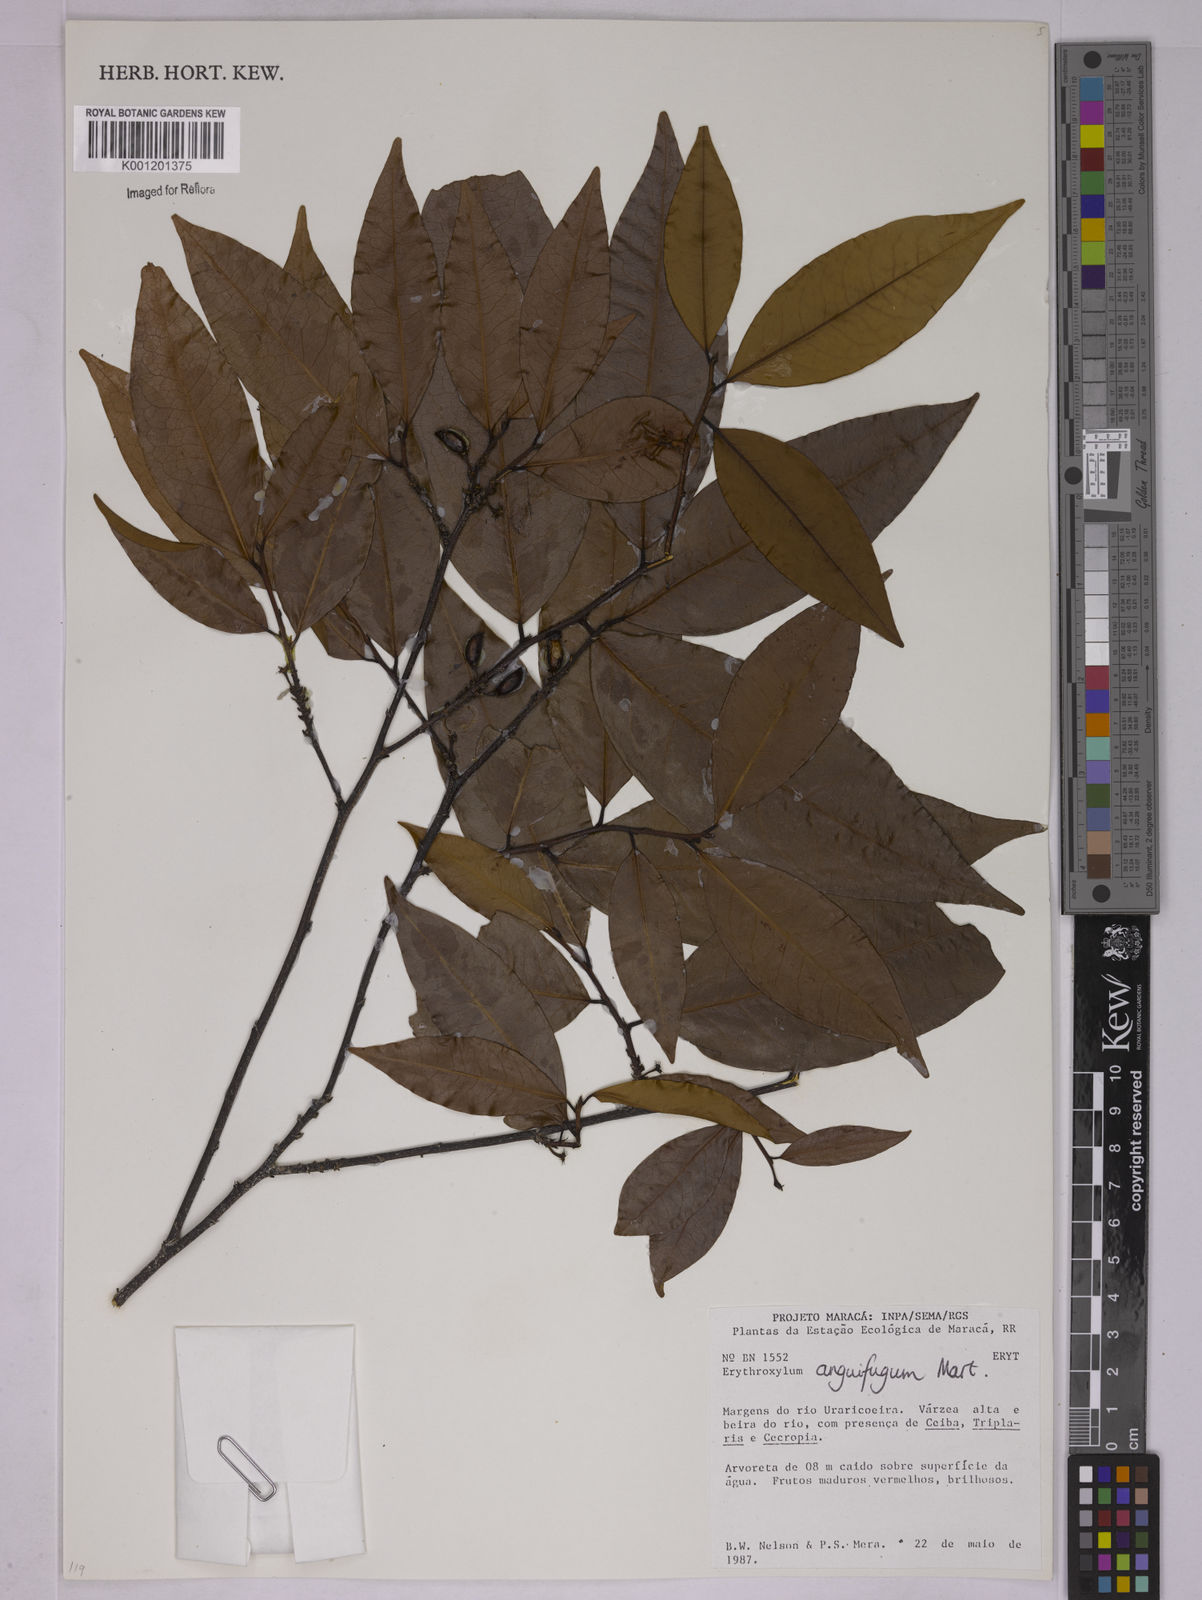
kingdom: Plantae
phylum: Tracheophyta
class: Magnoliopsida
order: Malpighiales
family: Erythroxylaceae
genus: Erythroxylum
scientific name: Erythroxylum anguifugum
